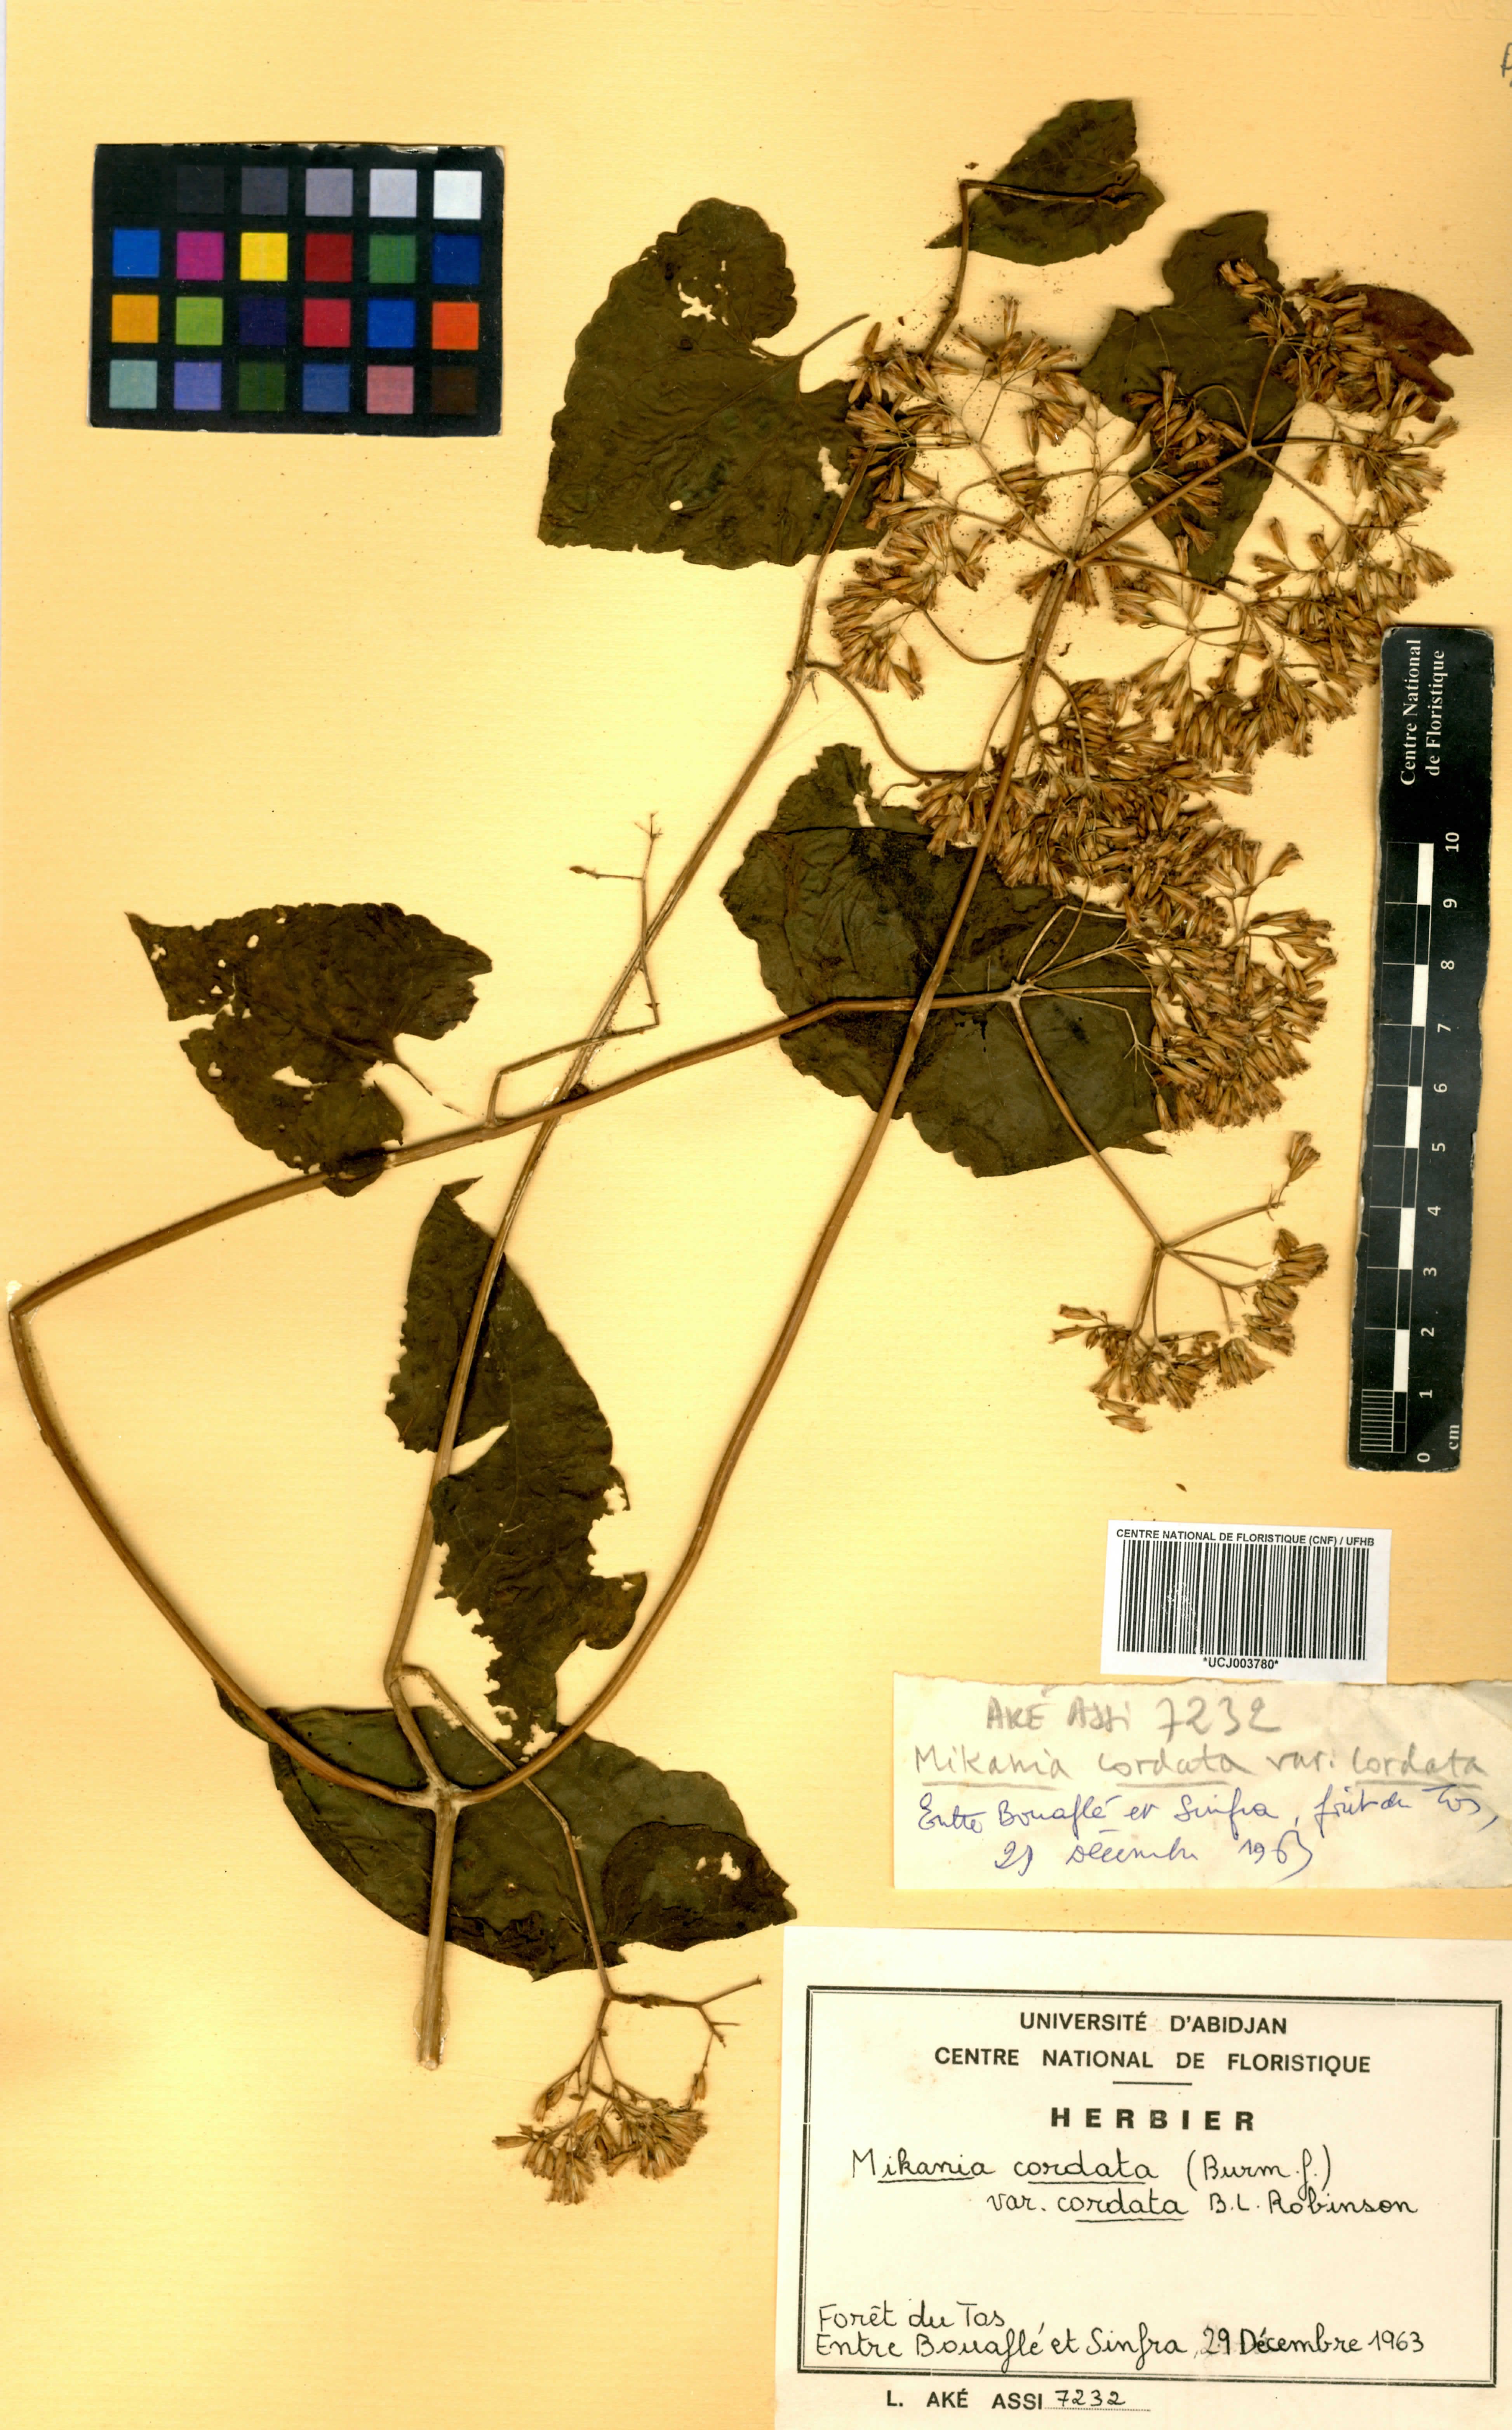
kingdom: Plantae
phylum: Tracheophyta
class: Magnoliopsida
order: Asterales
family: Asteraceae
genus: Mikania
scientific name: Mikania cordata
